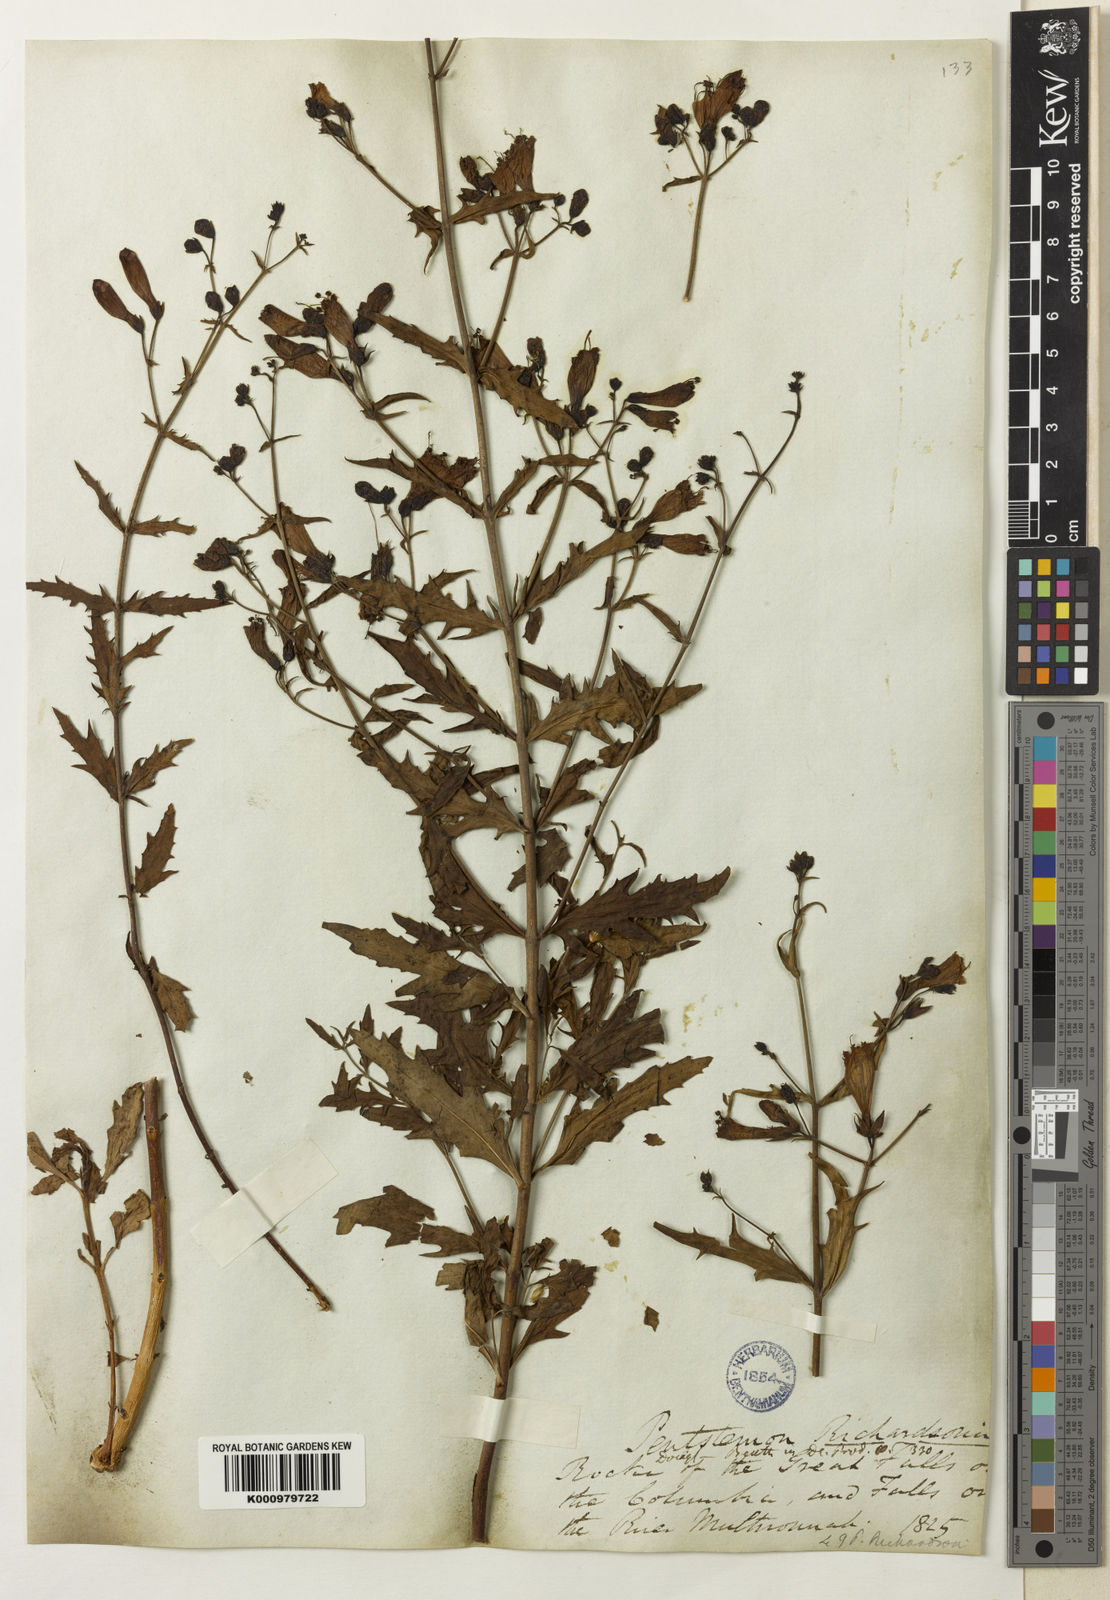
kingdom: Plantae
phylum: Tracheophyta
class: Magnoliopsida
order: Lamiales
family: Plantaginaceae
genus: Penstemon
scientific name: Penstemon richardsonii
